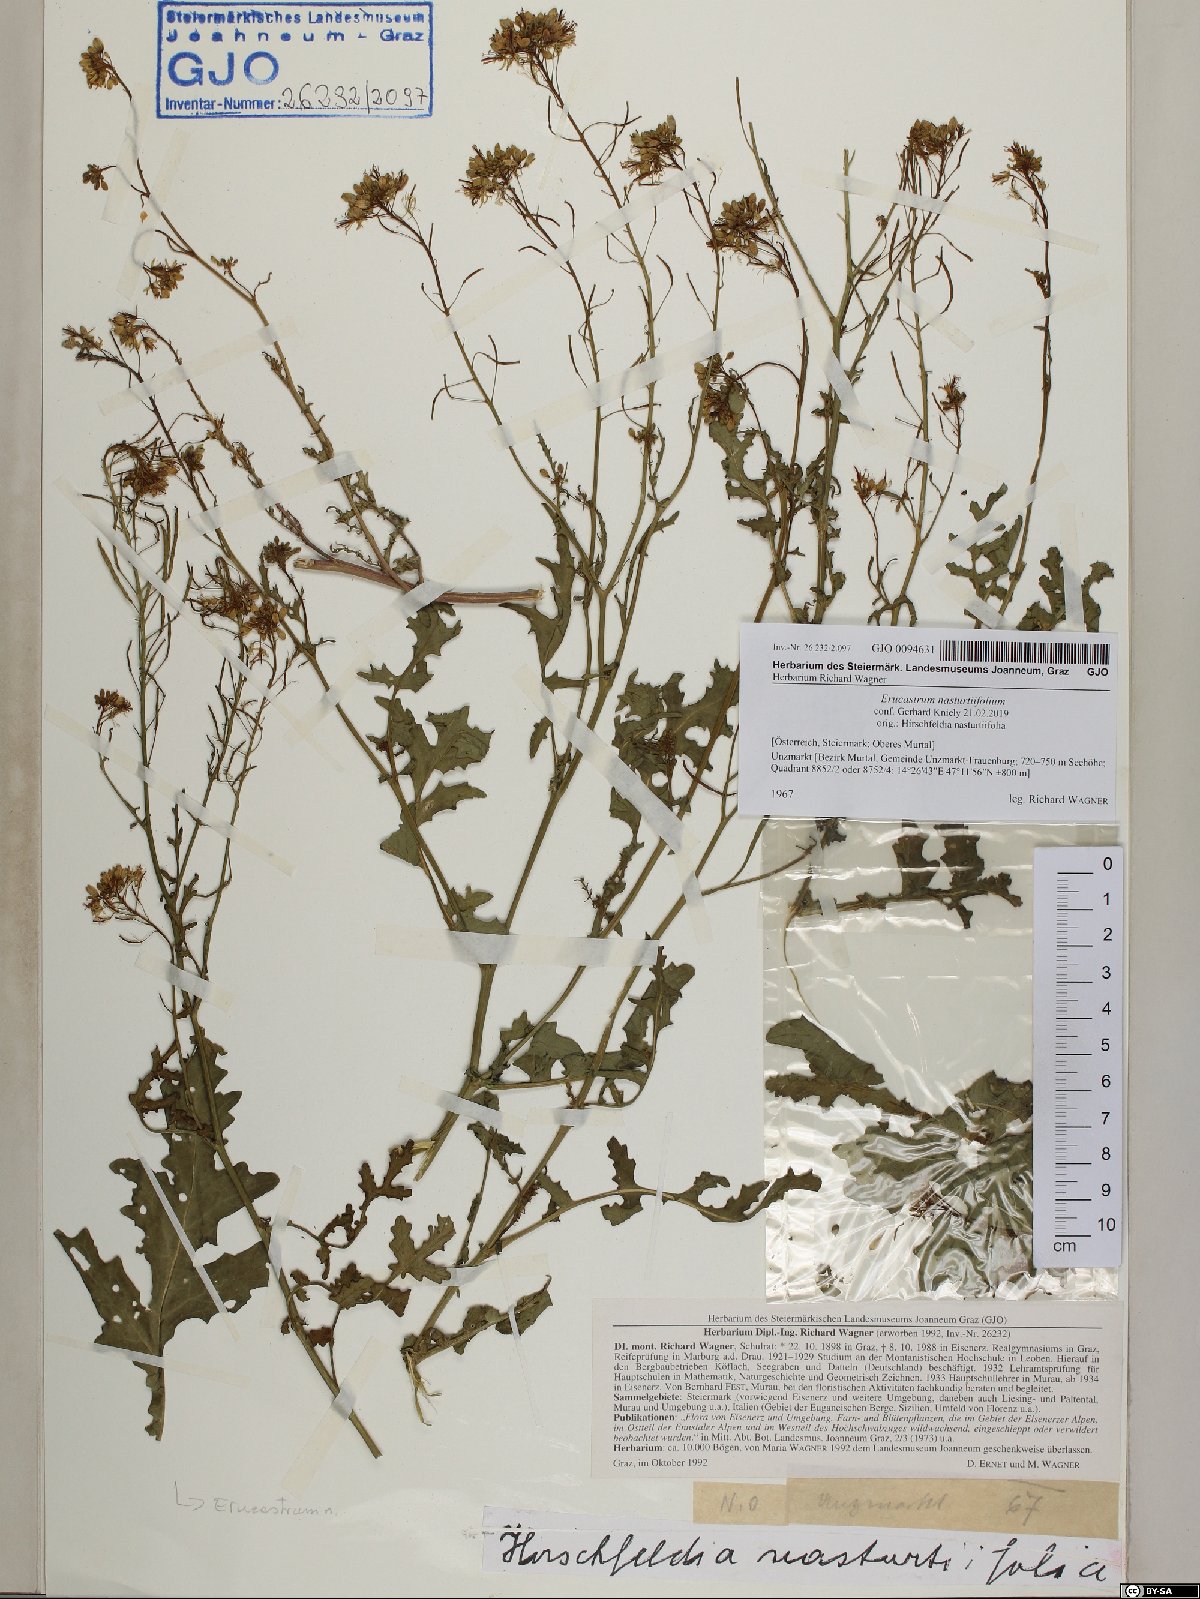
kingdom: Plantae
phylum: Tracheophyta
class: Magnoliopsida
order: Brassicales
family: Brassicaceae
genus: Erucastrum
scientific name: Erucastrum nasturtiifolium
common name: Watercress-leaf rocket
